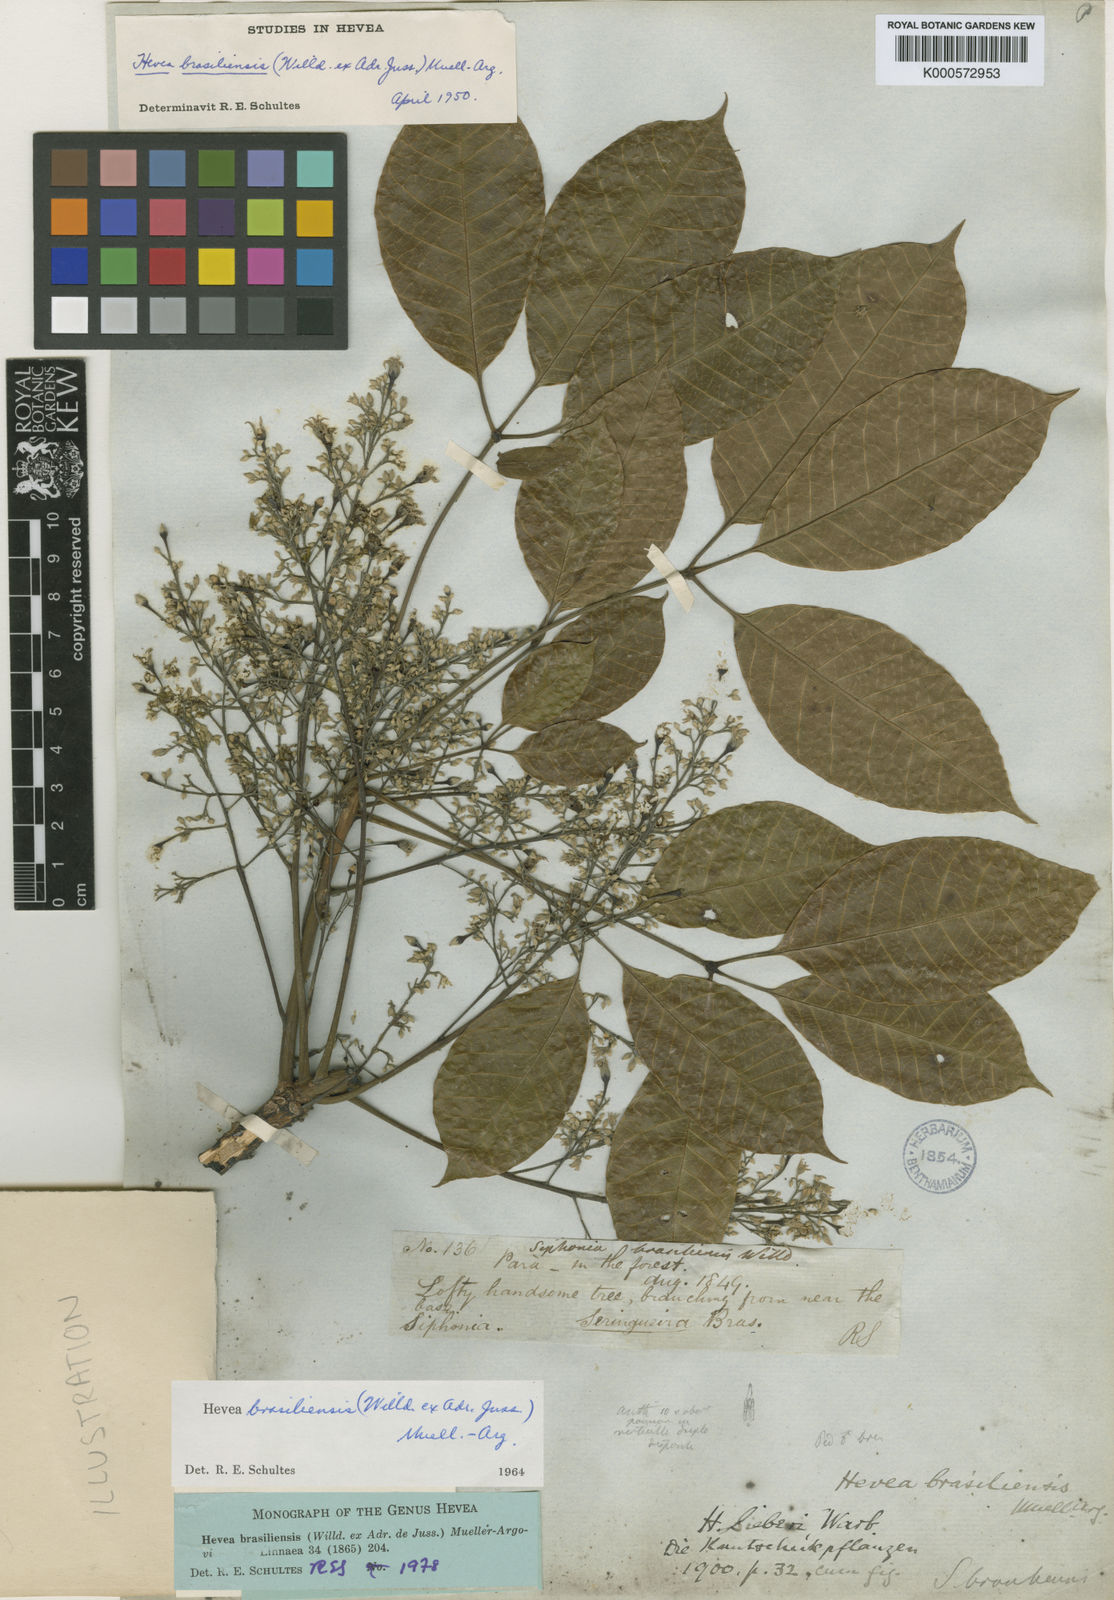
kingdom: Plantae
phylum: Tracheophyta
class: Magnoliopsida
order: Malpighiales
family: Euphorbiaceae
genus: Hevea
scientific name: Hevea brasiliensis
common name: Natural rubber
